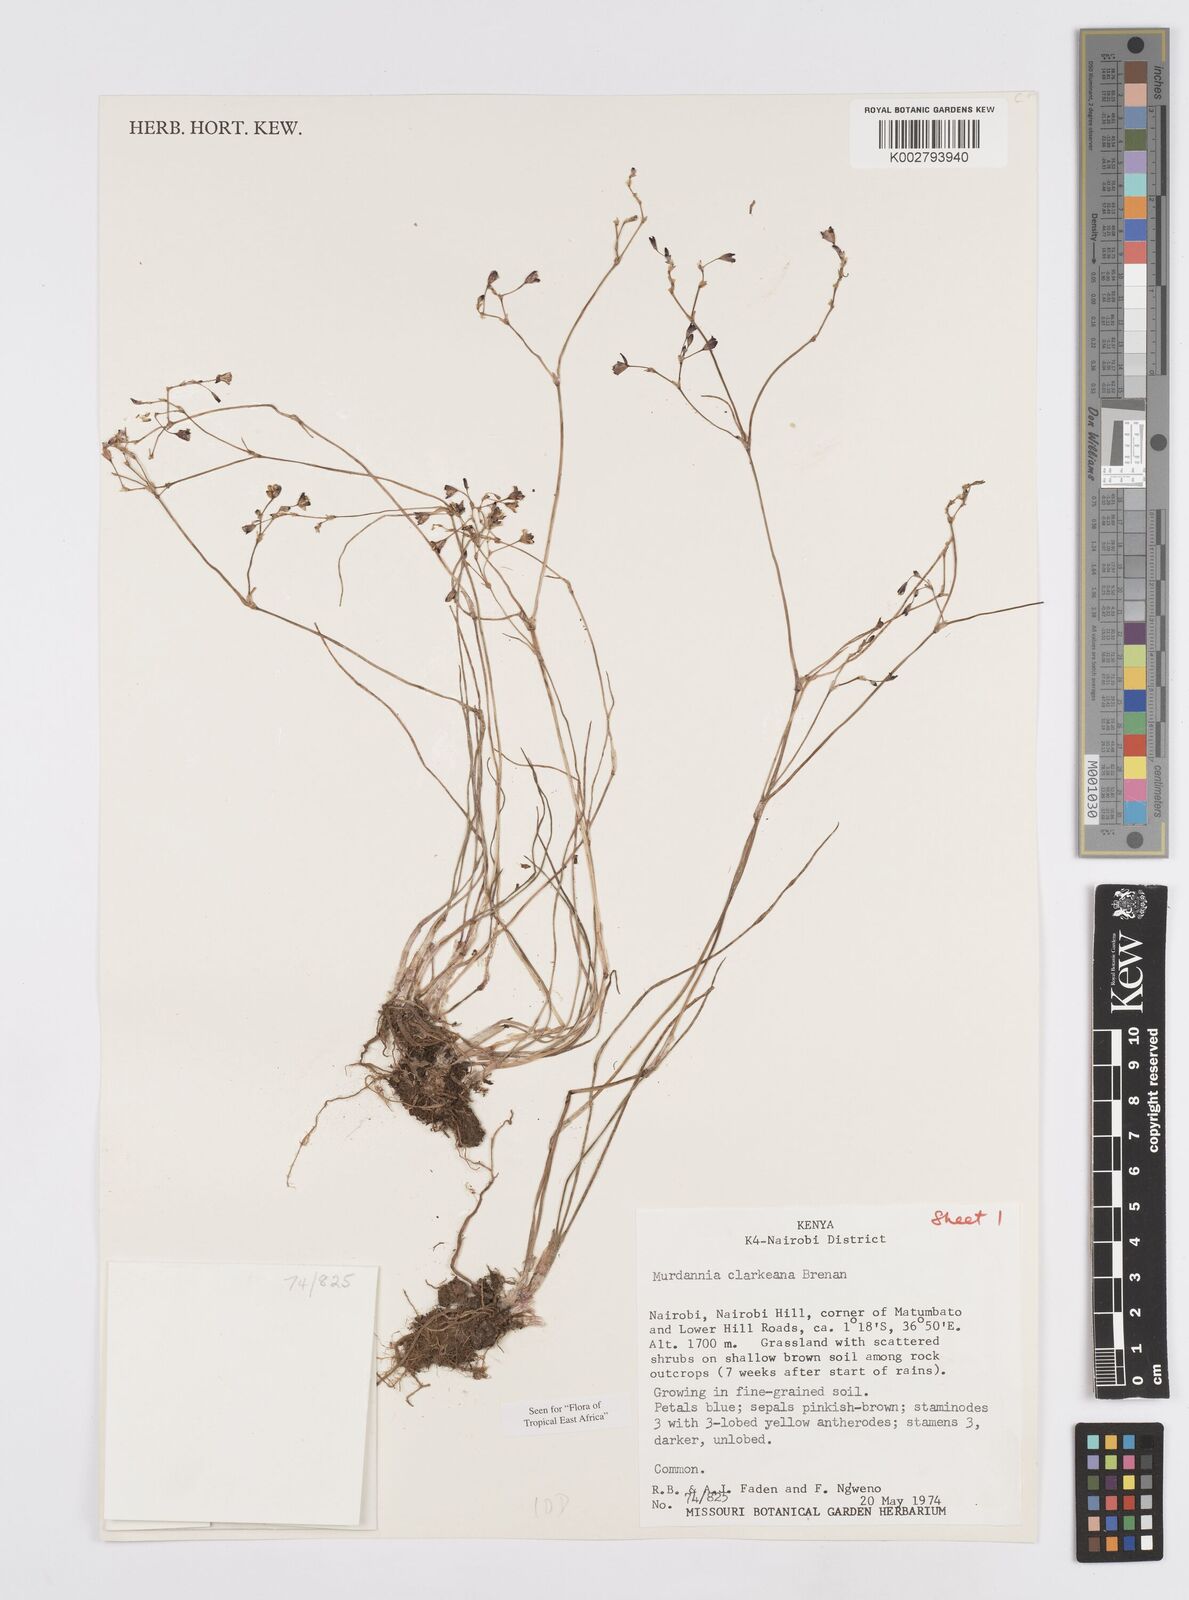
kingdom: Plantae
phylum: Tracheophyta
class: Liliopsida
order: Commelinales
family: Commelinaceae
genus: Murdannia
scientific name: Murdannia clarkeana
